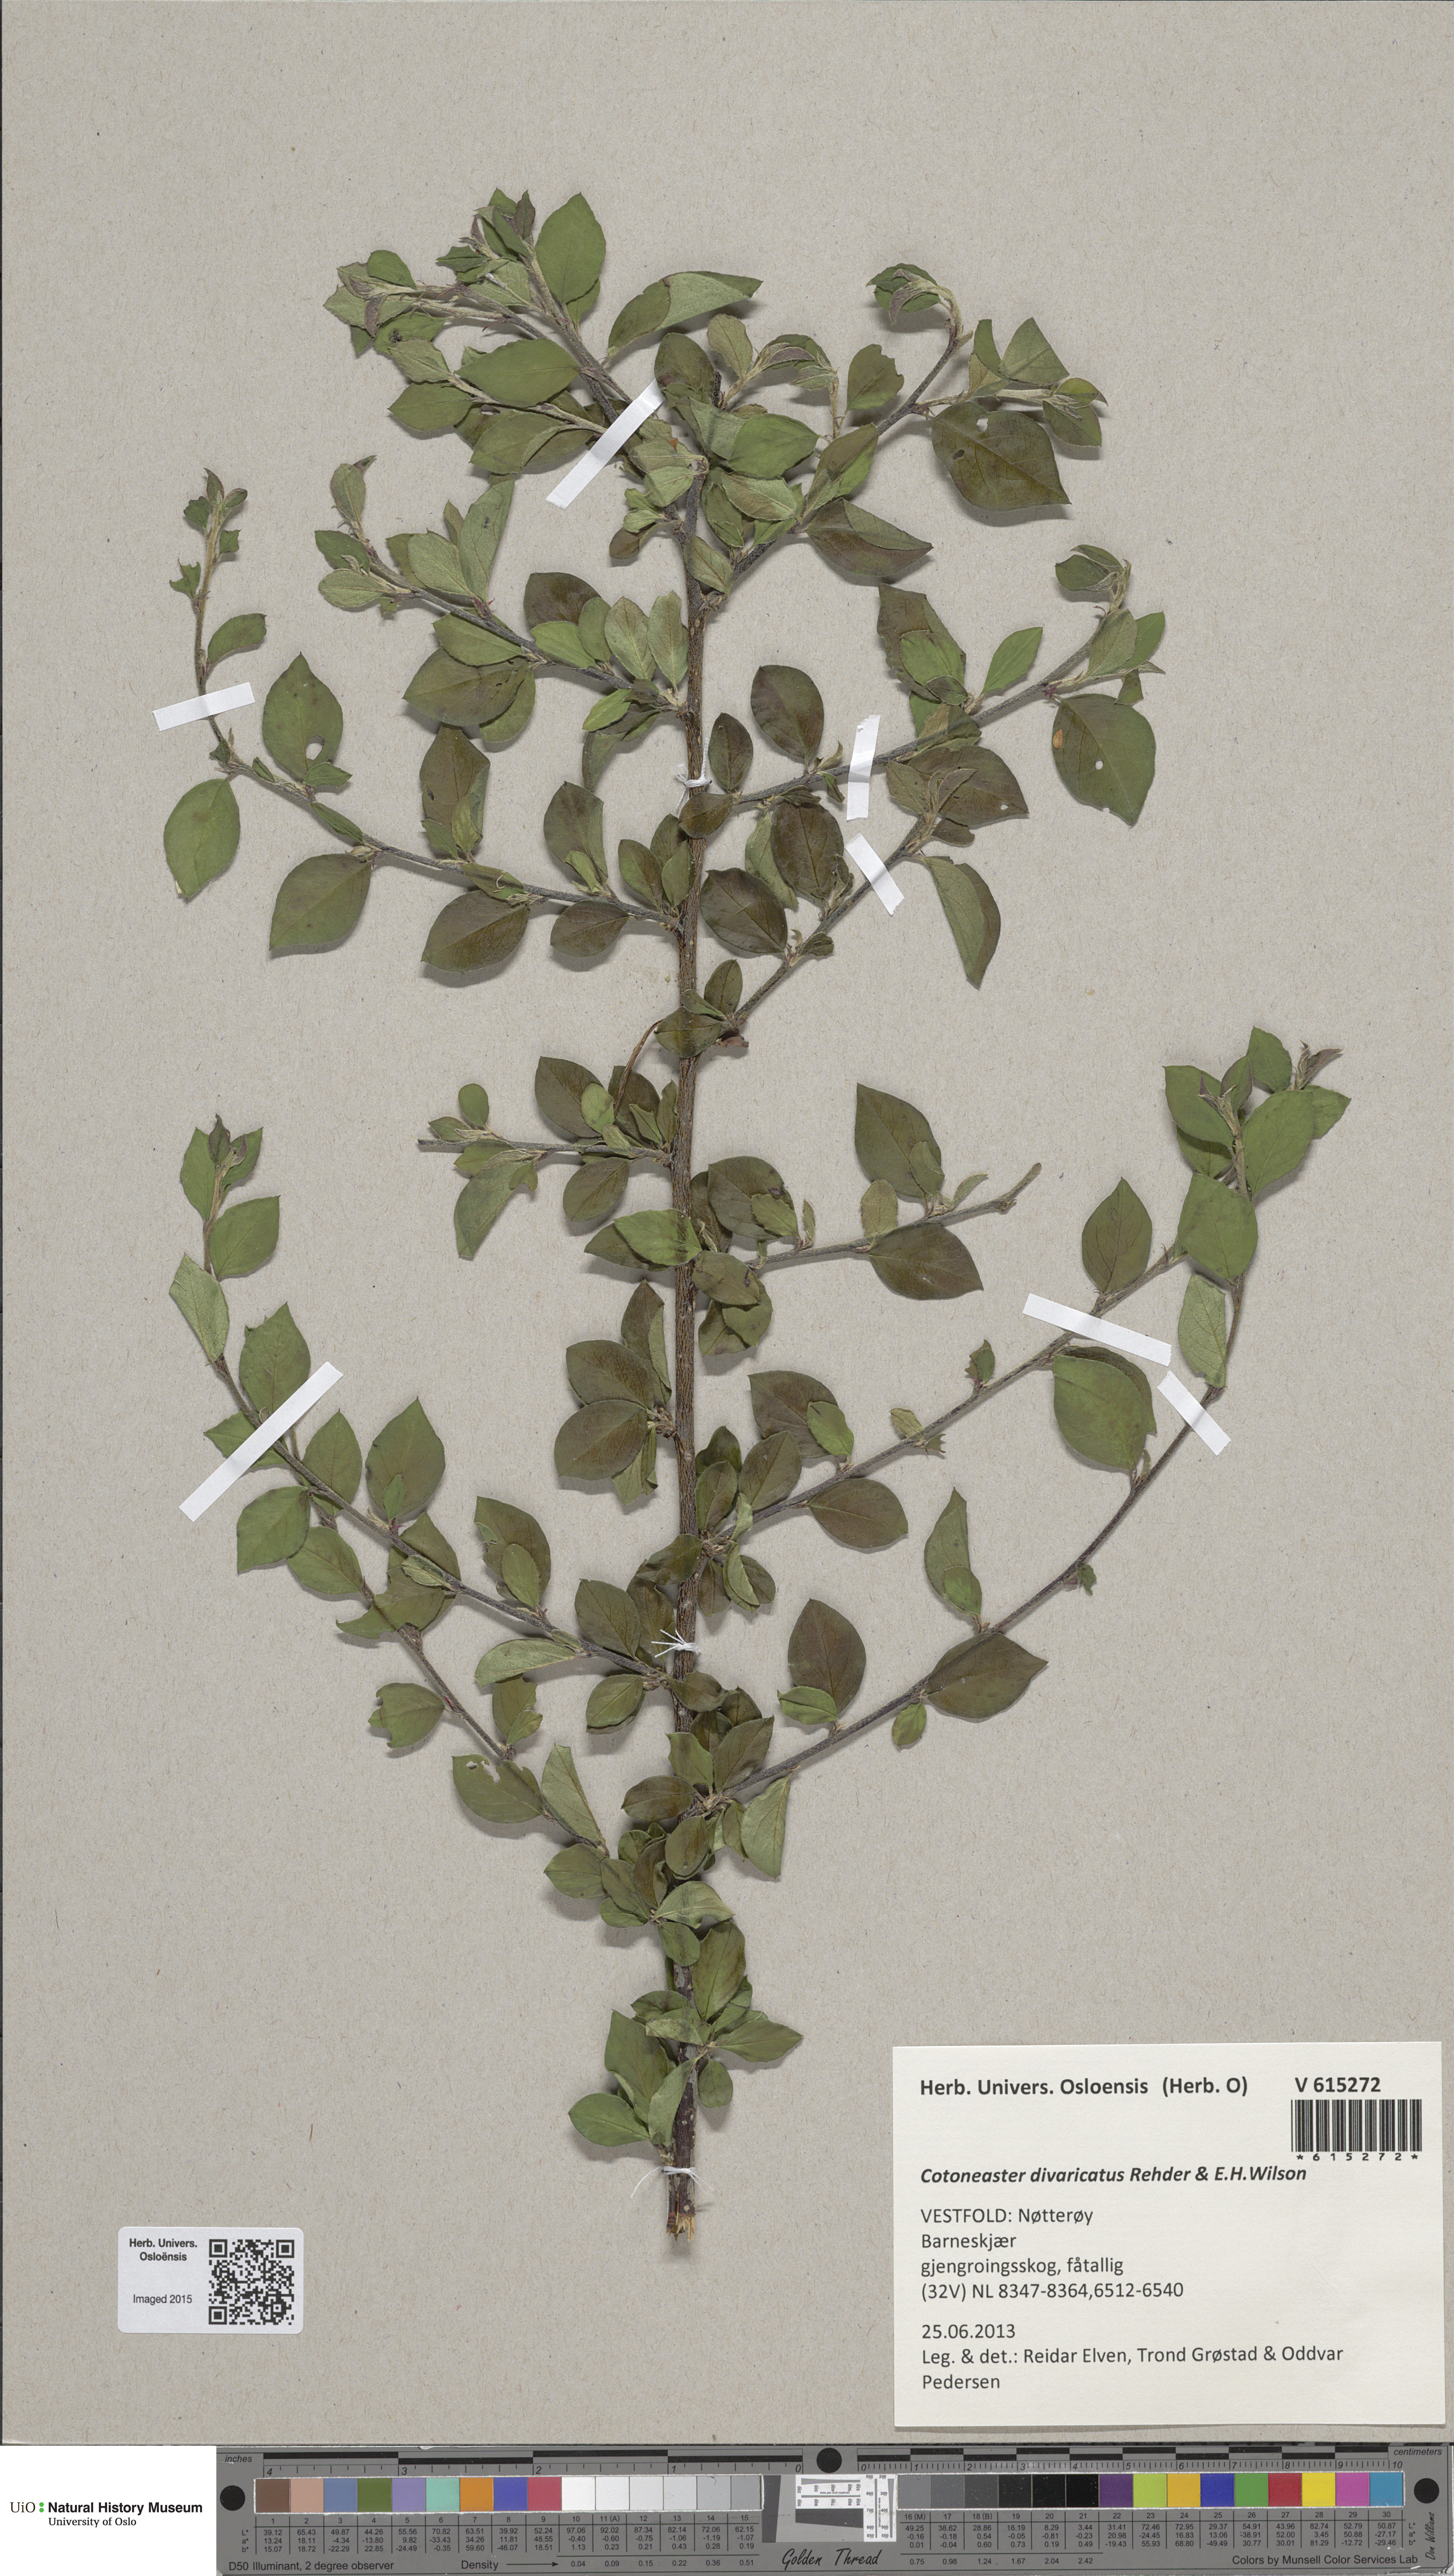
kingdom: Plantae
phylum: Tracheophyta
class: Magnoliopsida
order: Rosales
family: Rosaceae
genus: Cotoneaster
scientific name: Cotoneaster divaricatus
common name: Spreading cotoneaster
